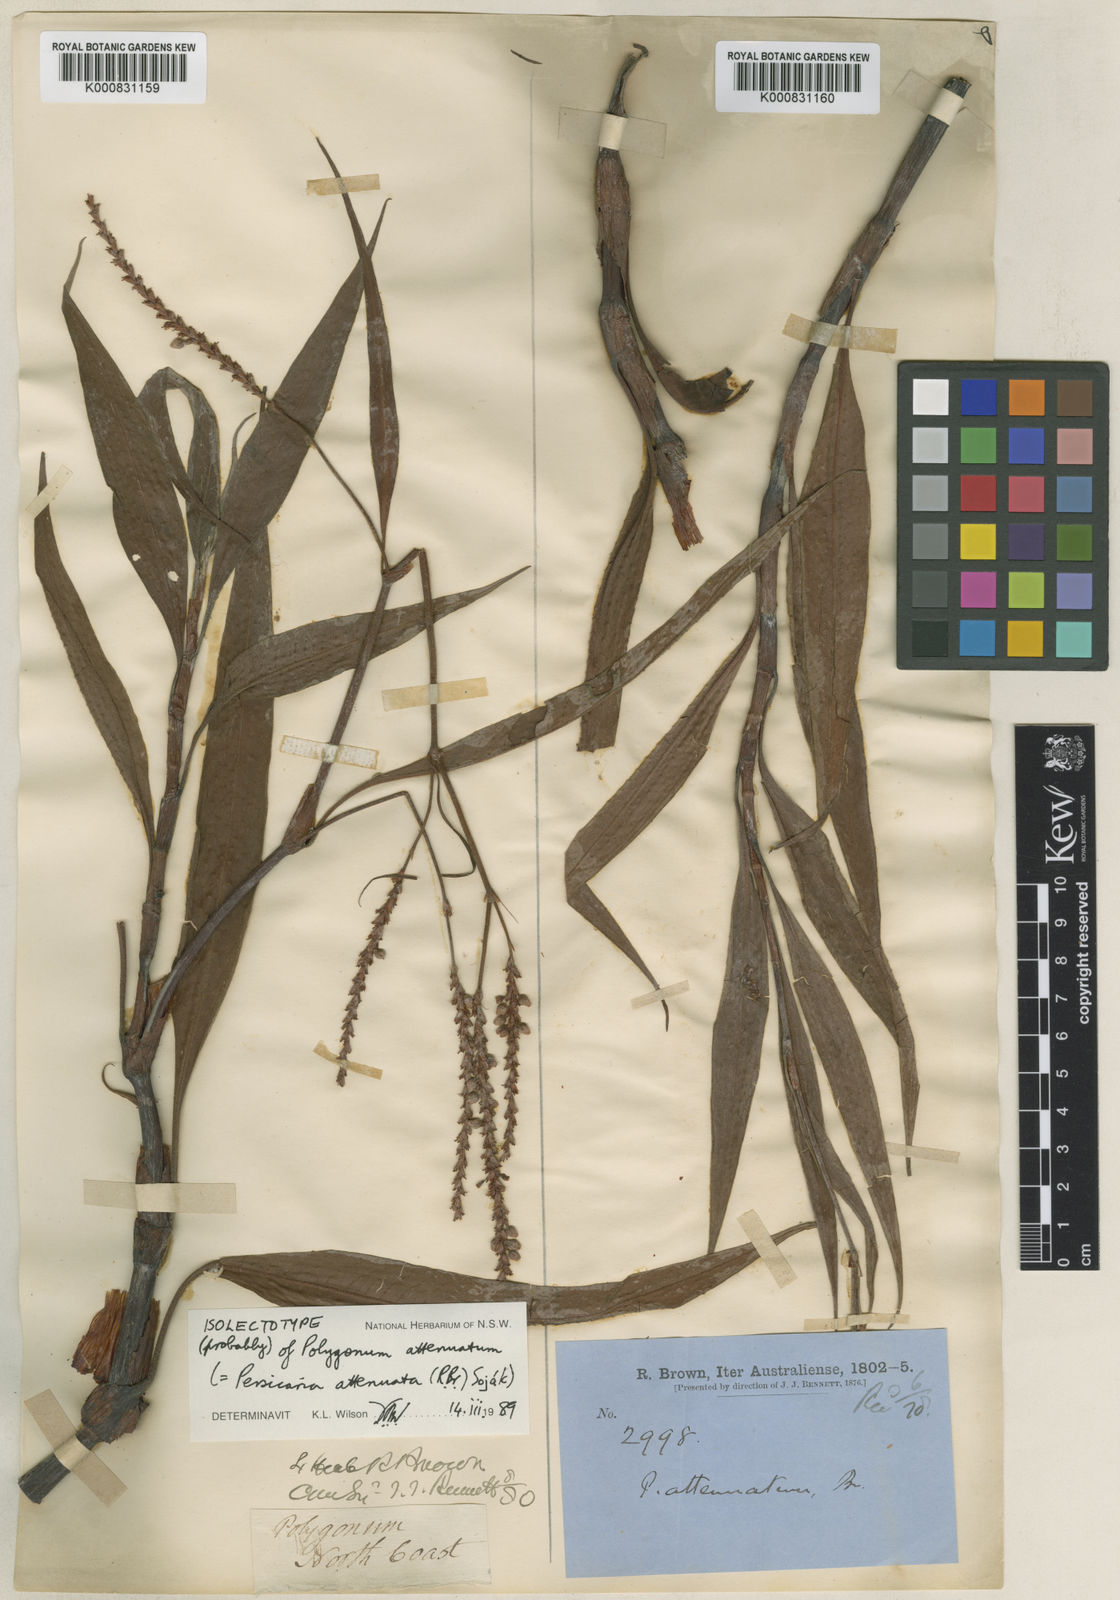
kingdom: Plantae
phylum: Tracheophyta
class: Magnoliopsida
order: Caryophyllales
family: Polygonaceae
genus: Persicaria
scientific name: Persicaria
